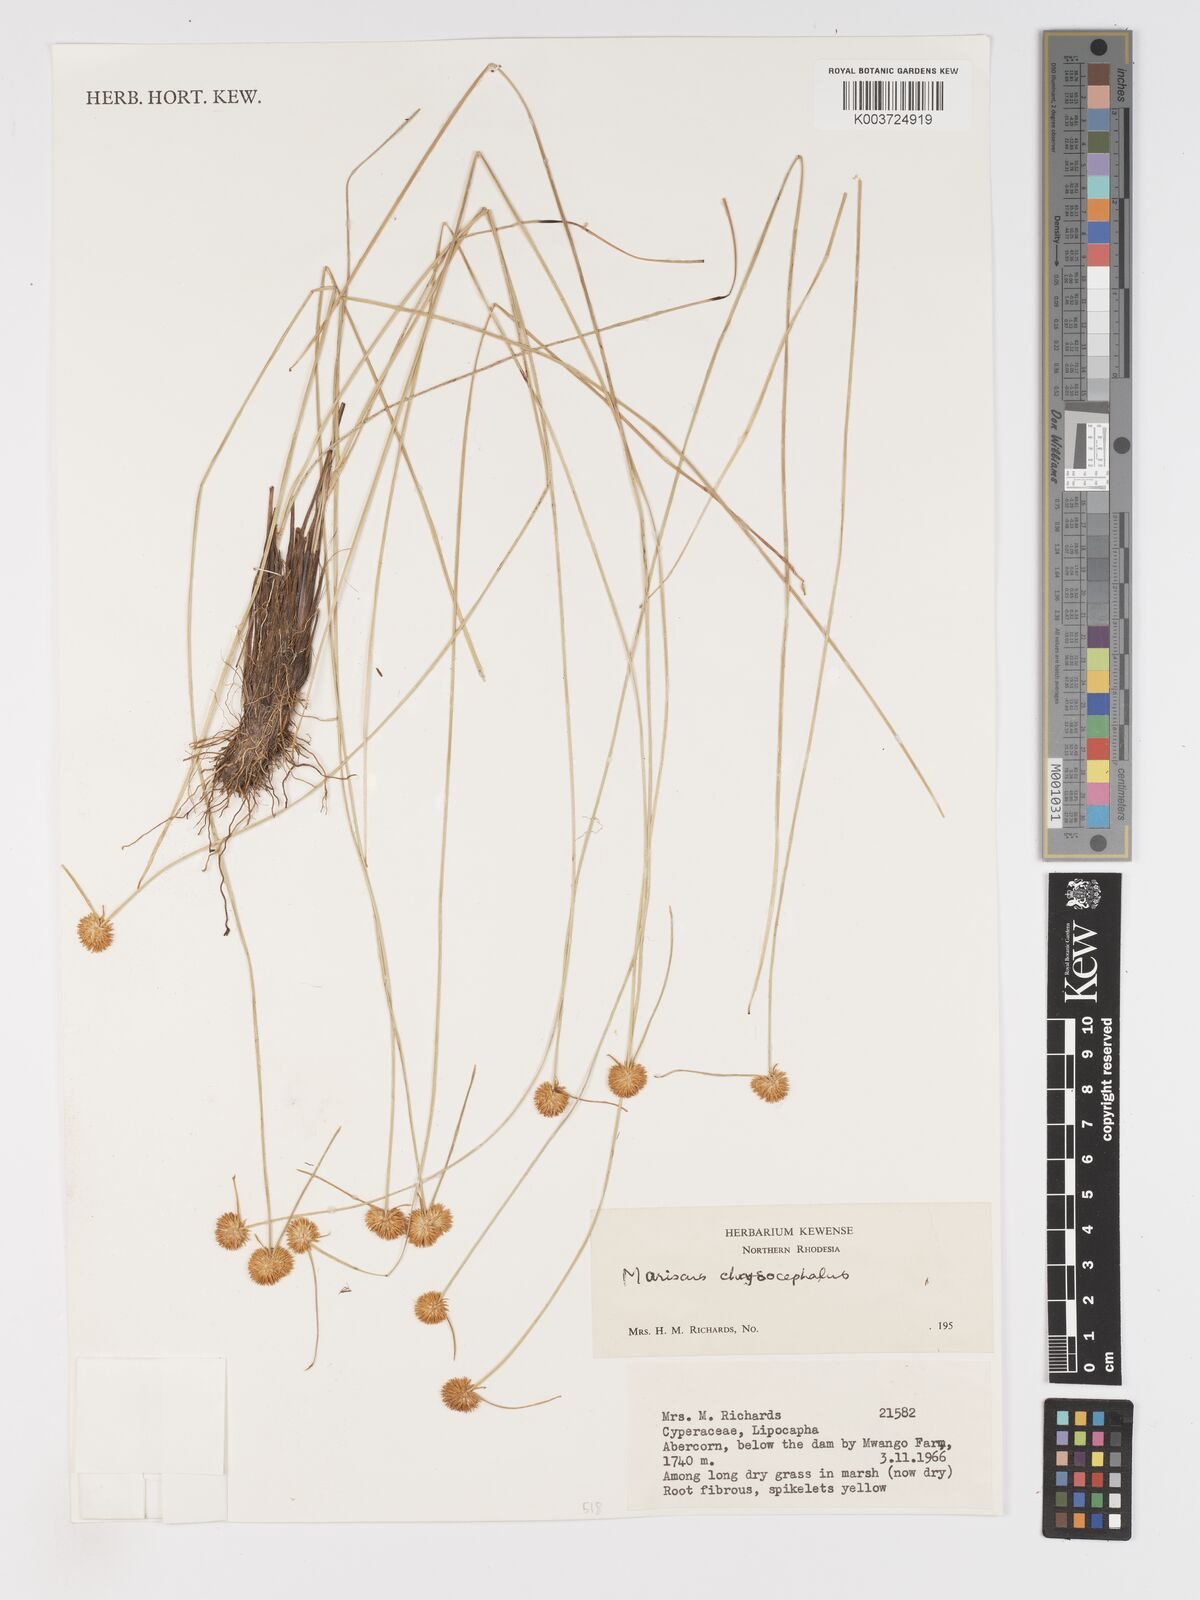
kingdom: Plantae
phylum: Tracheophyta
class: Liliopsida
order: Poales
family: Cyperaceae
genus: Cyperus
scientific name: Cyperus chrysocephalus
